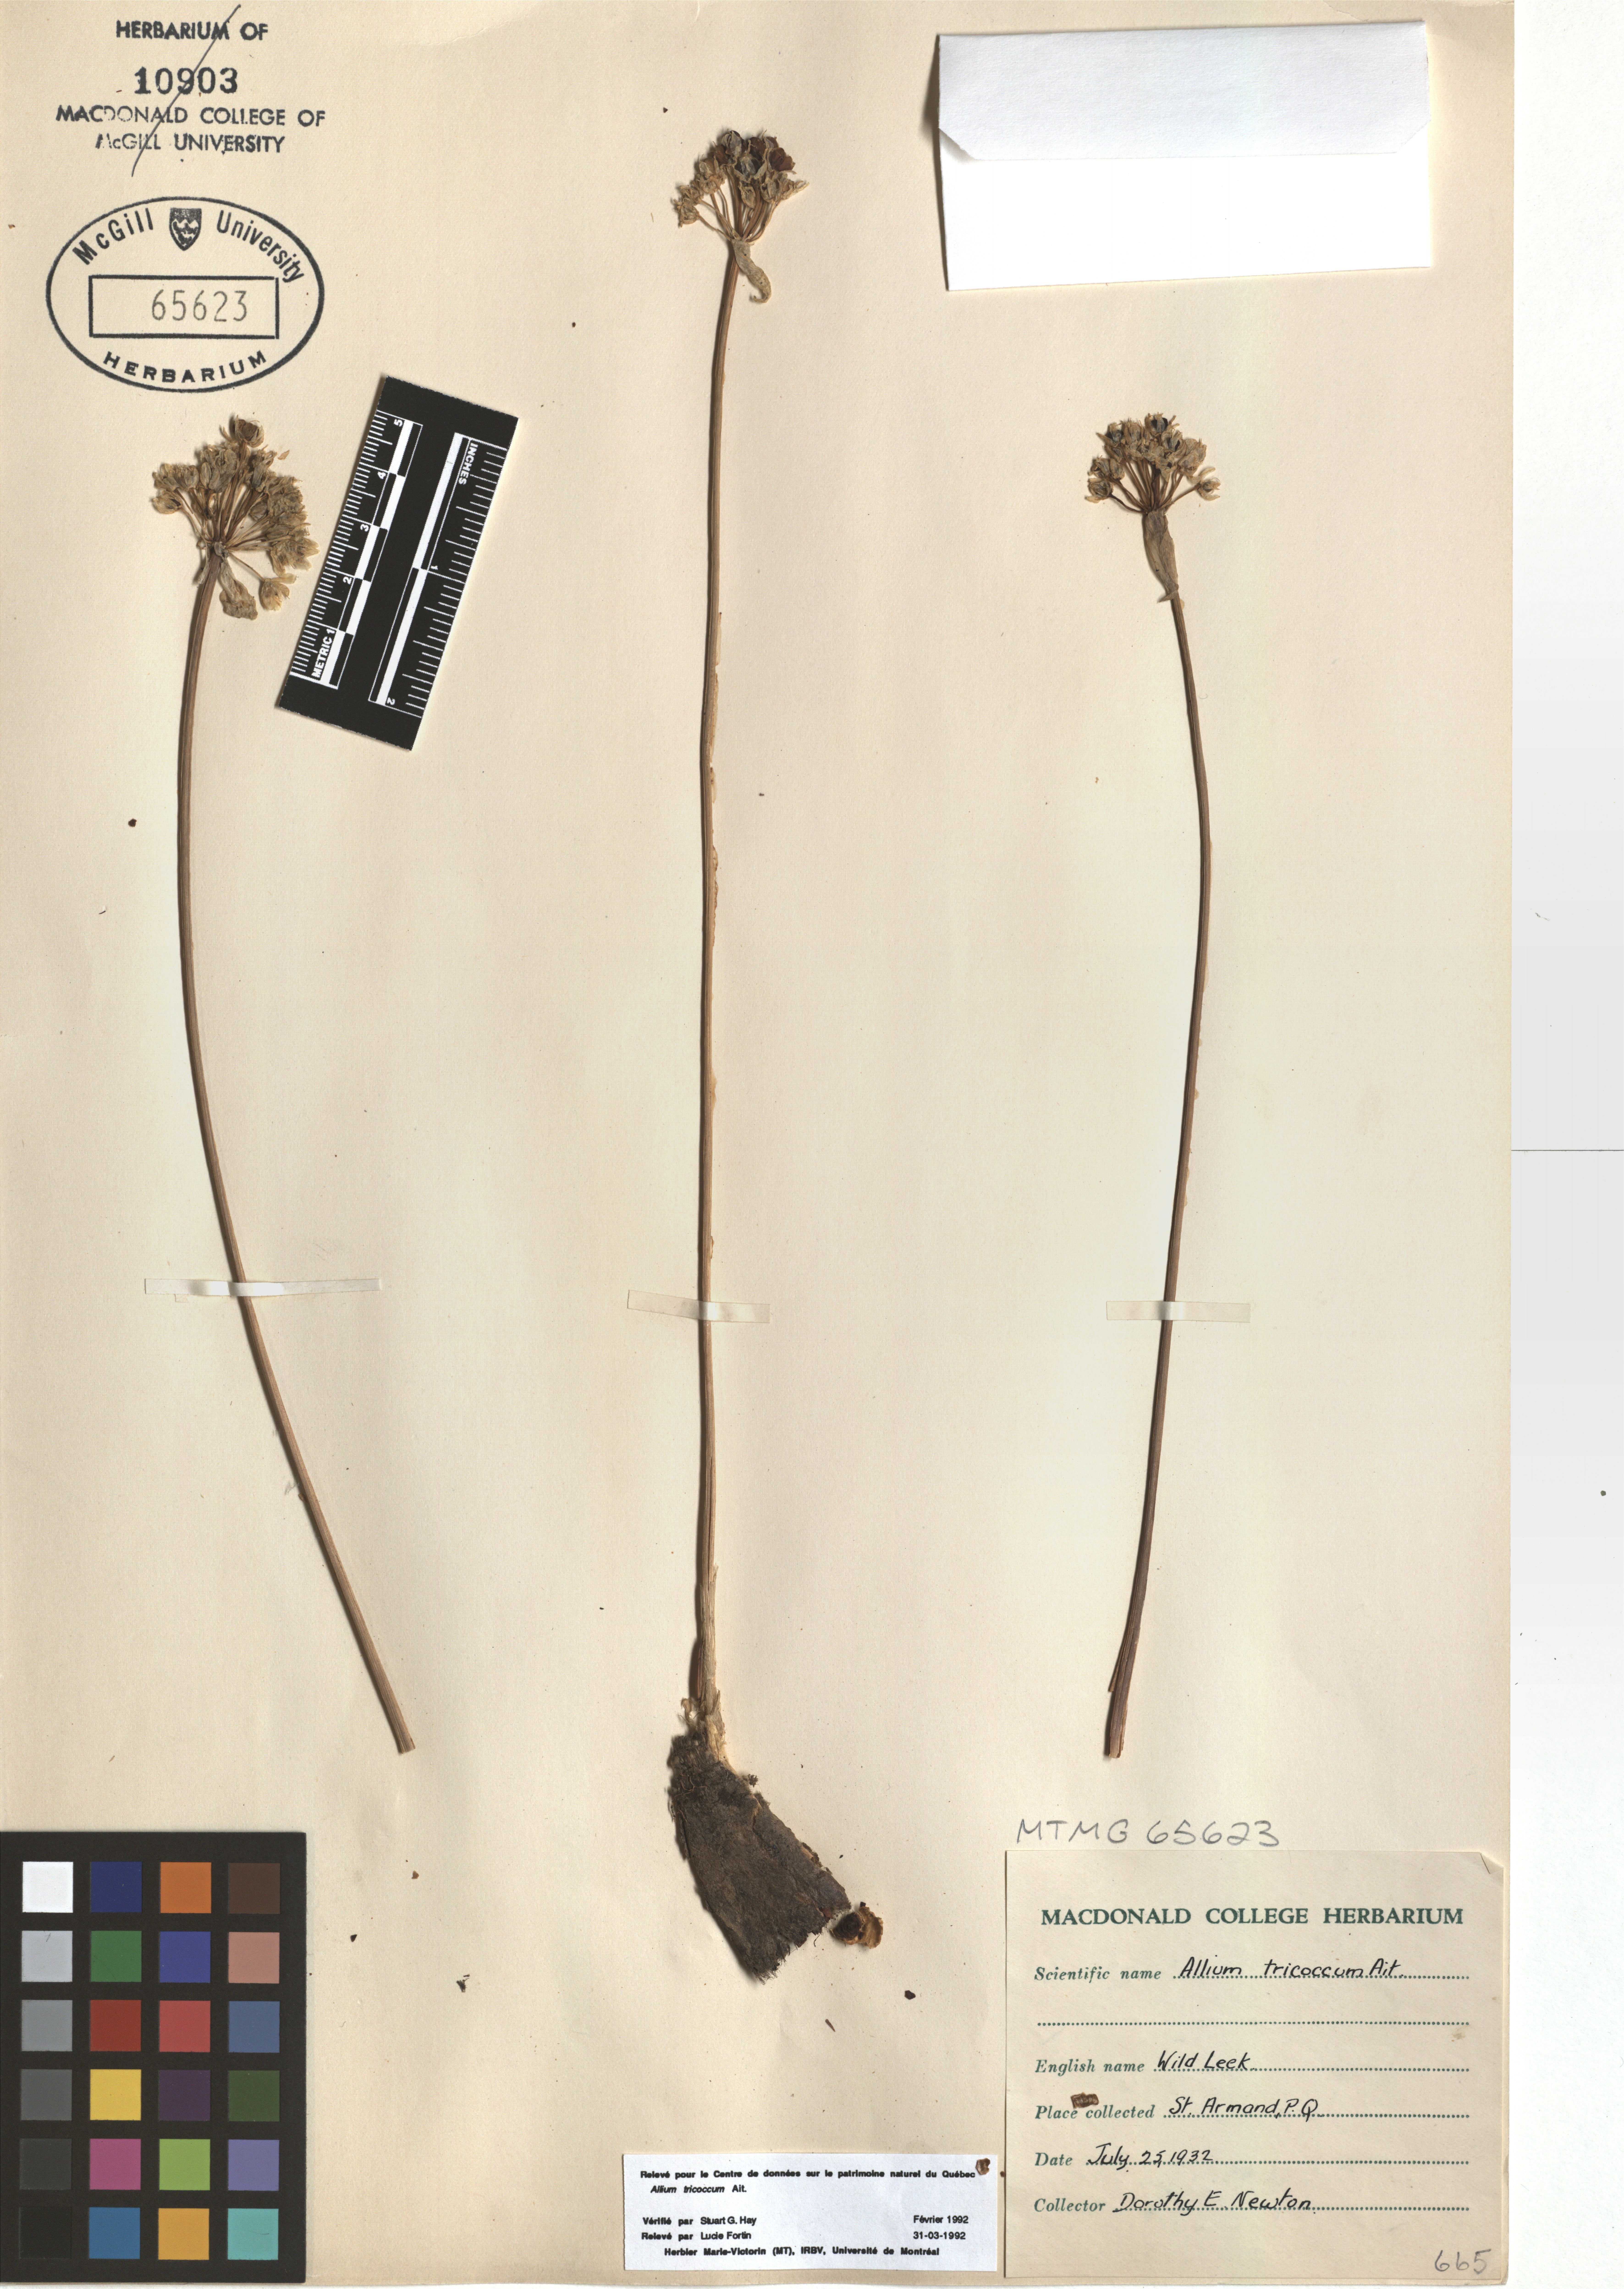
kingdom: Plantae
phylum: Tracheophyta
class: Liliopsida
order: Asparagales
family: Amaryllidaceae
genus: Allium
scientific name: Allium tricoccum
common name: Ramp
